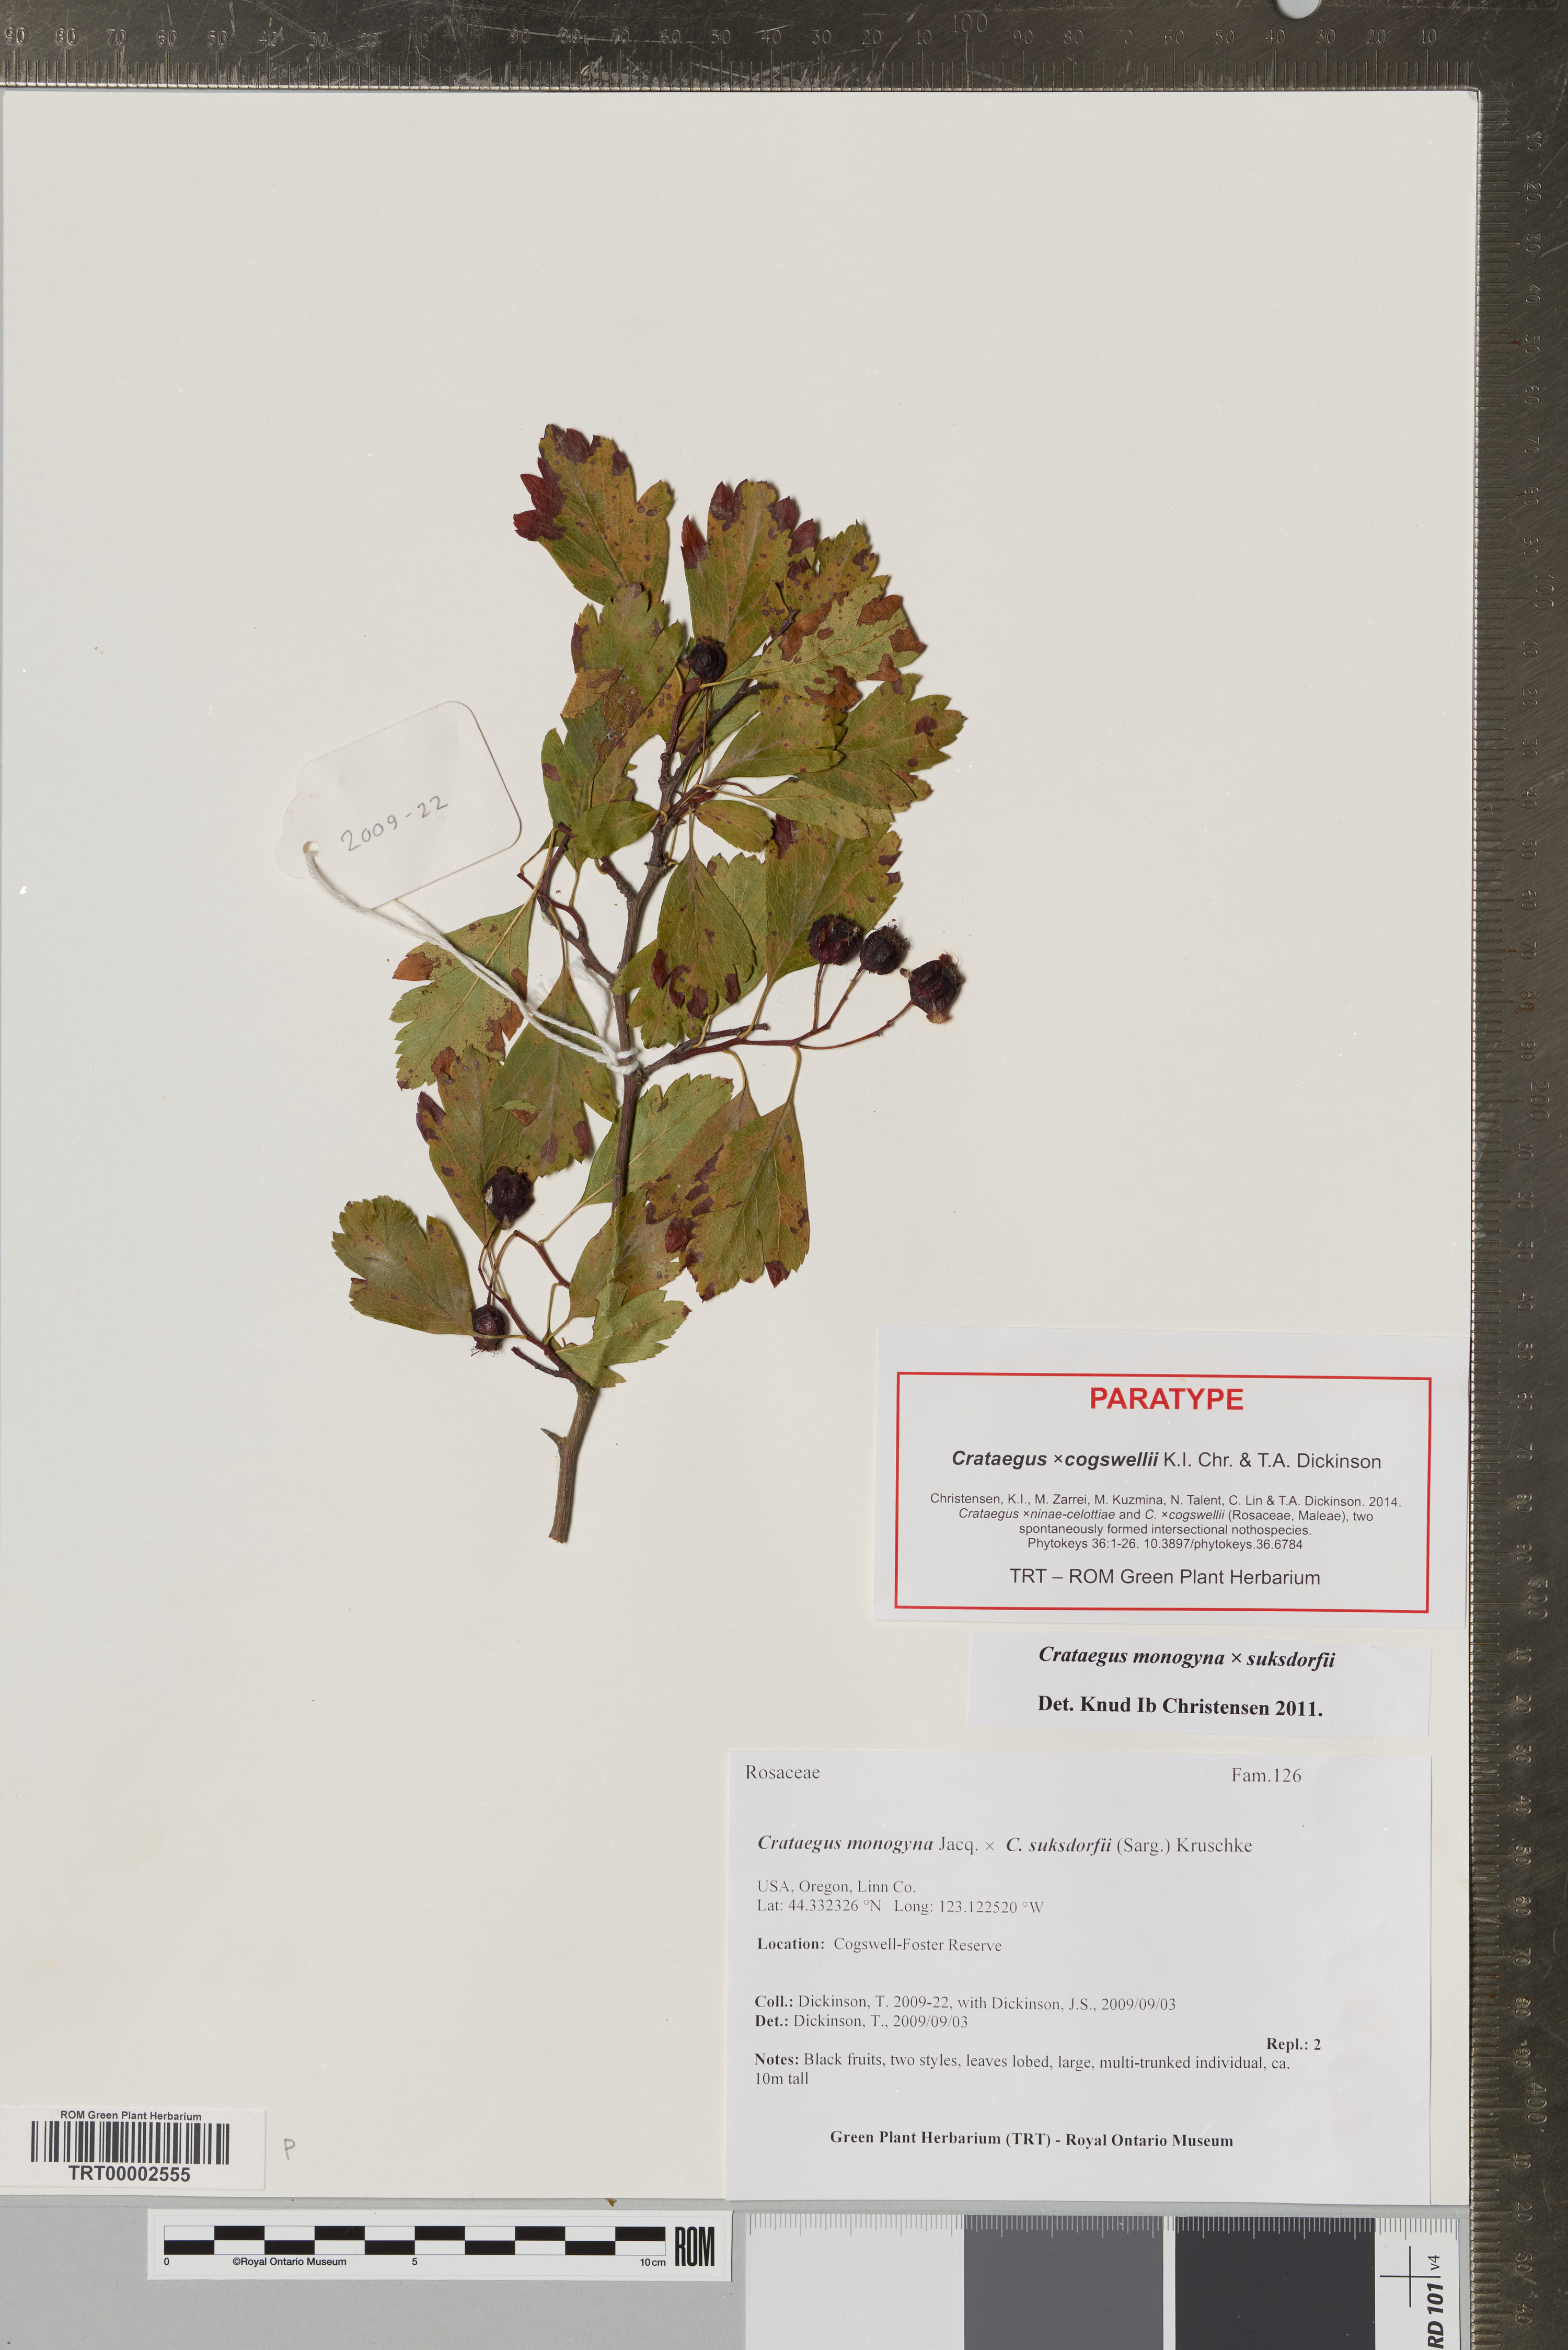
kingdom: Plantae
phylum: Tracheophyta
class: Magnoliopsida
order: Rosales
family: Rosaceae
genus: Crataegus
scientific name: Crataegus
